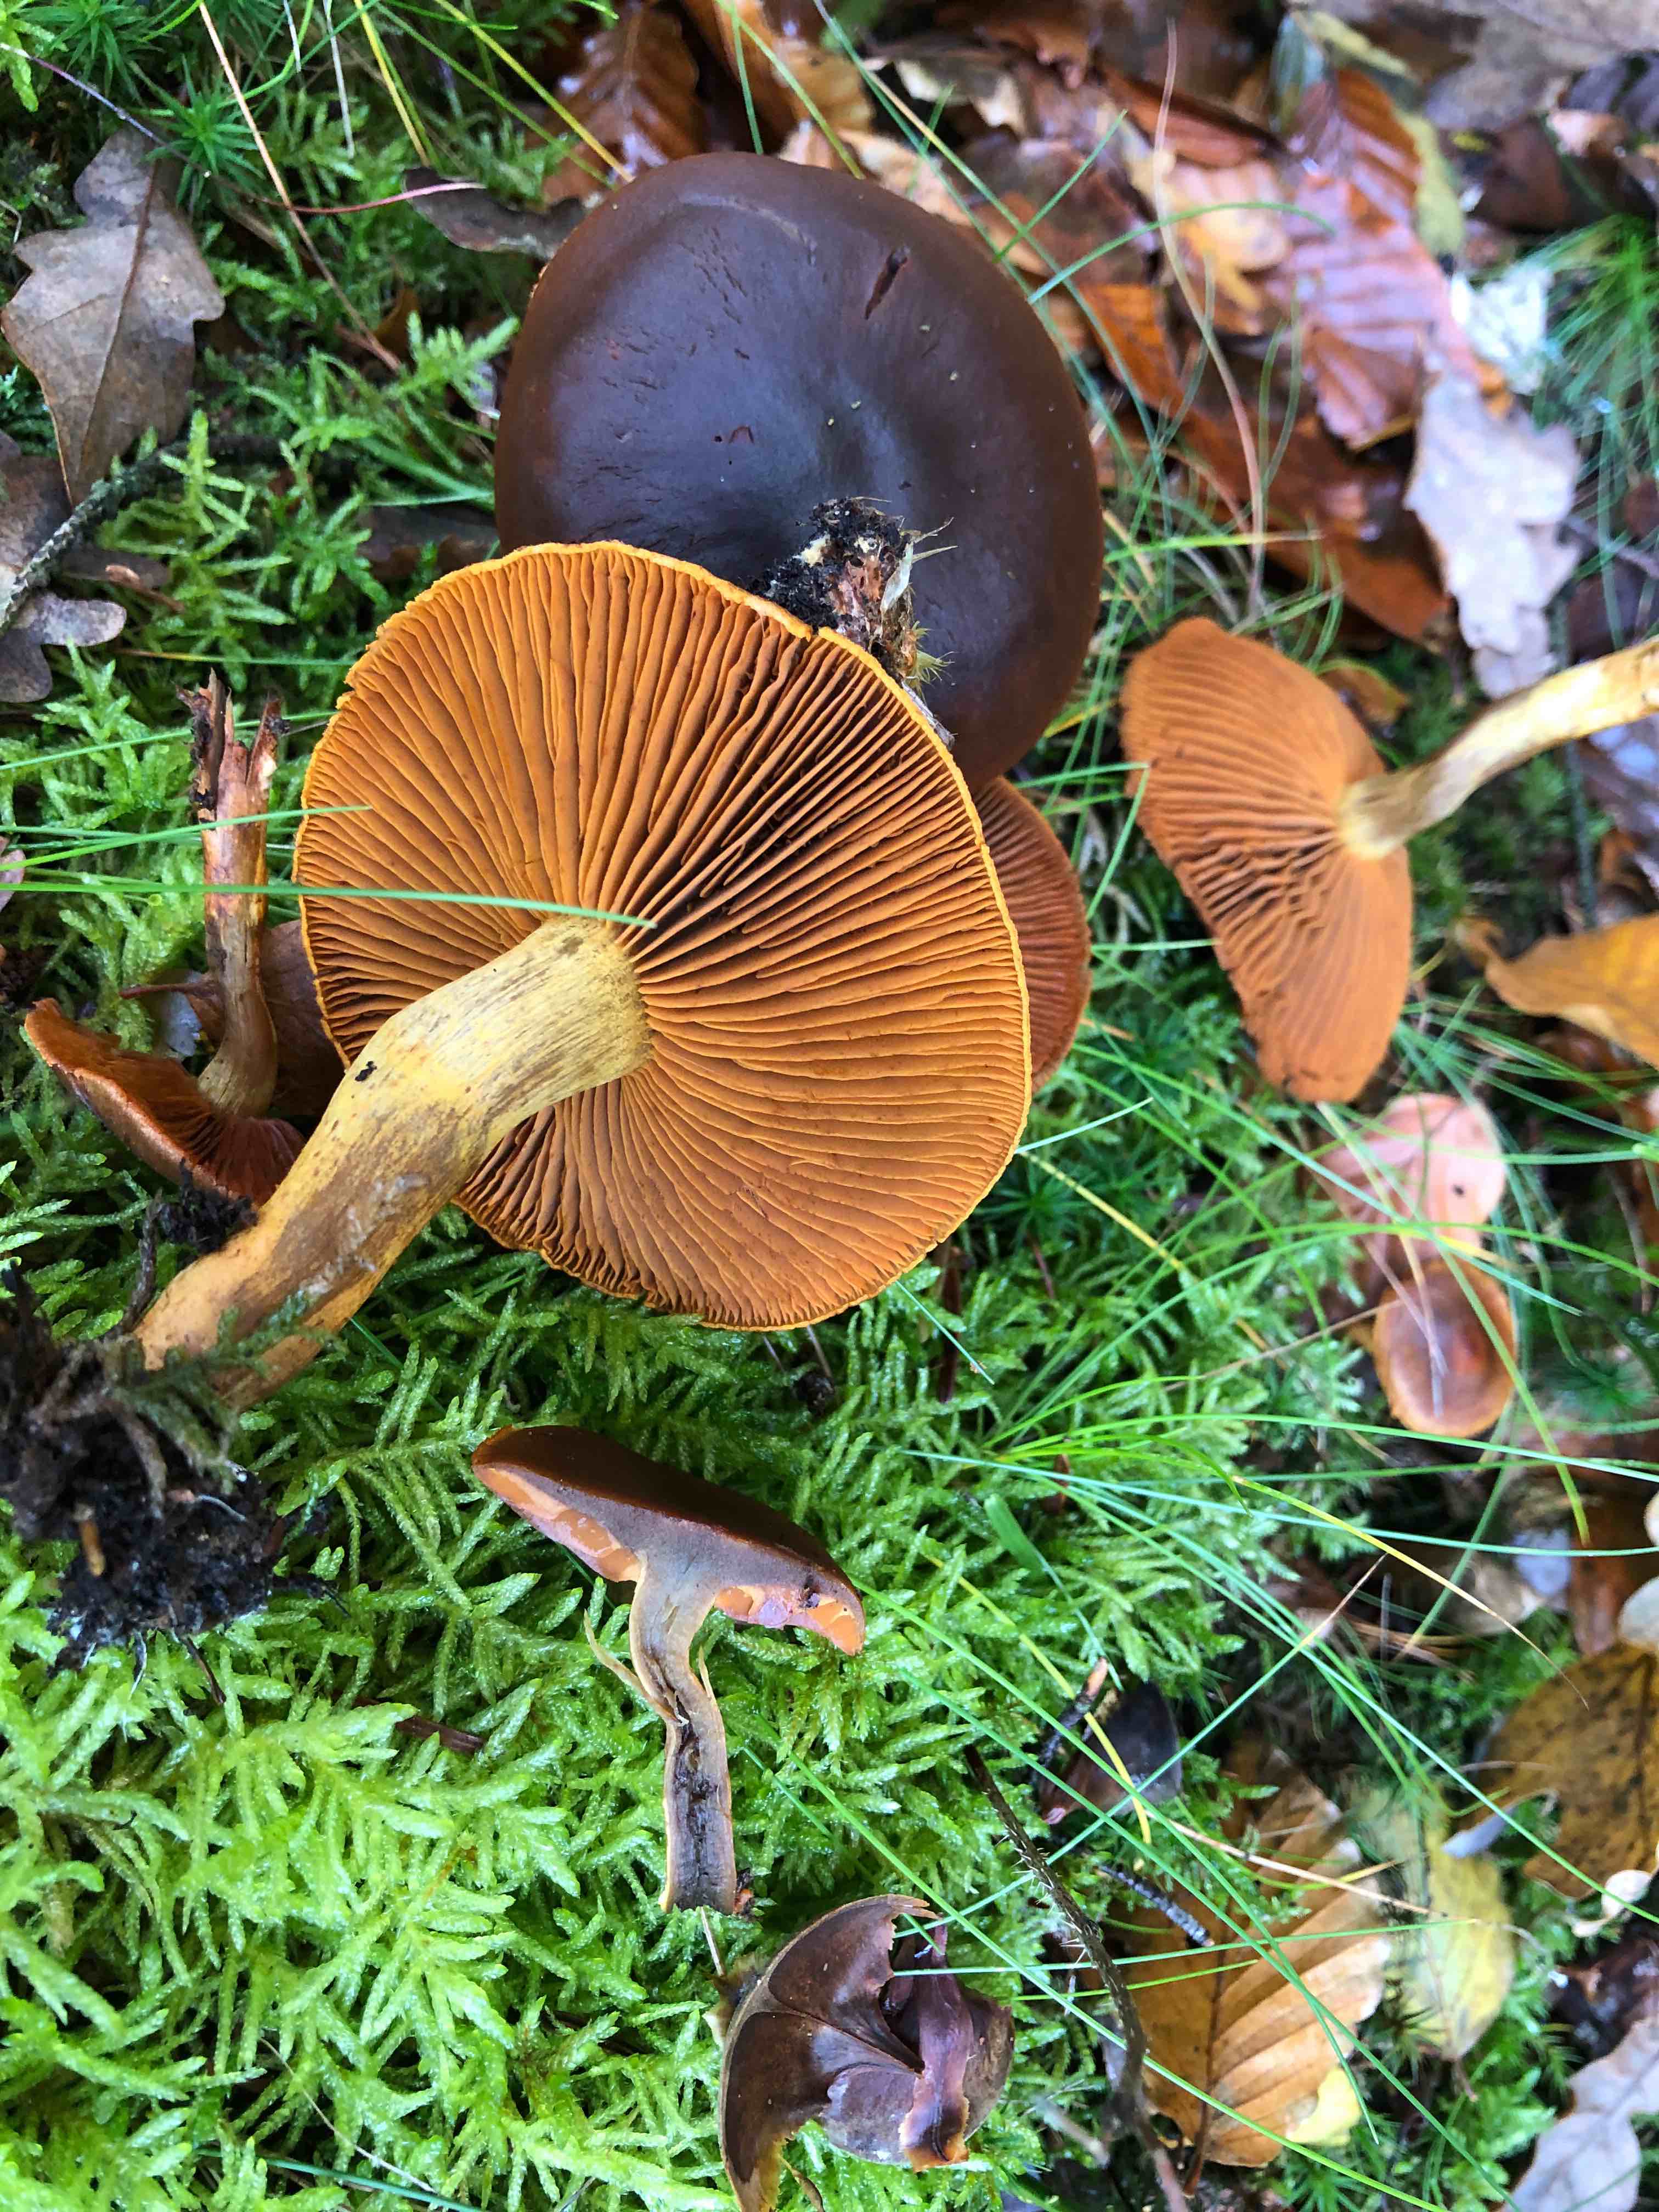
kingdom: Fungi
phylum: Basidiomycota
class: Agaricomycetes
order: Agaricales
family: Cortinariaceae
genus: Cortinarius
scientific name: Cortinarius malicorius
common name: grønkødet slørhat
